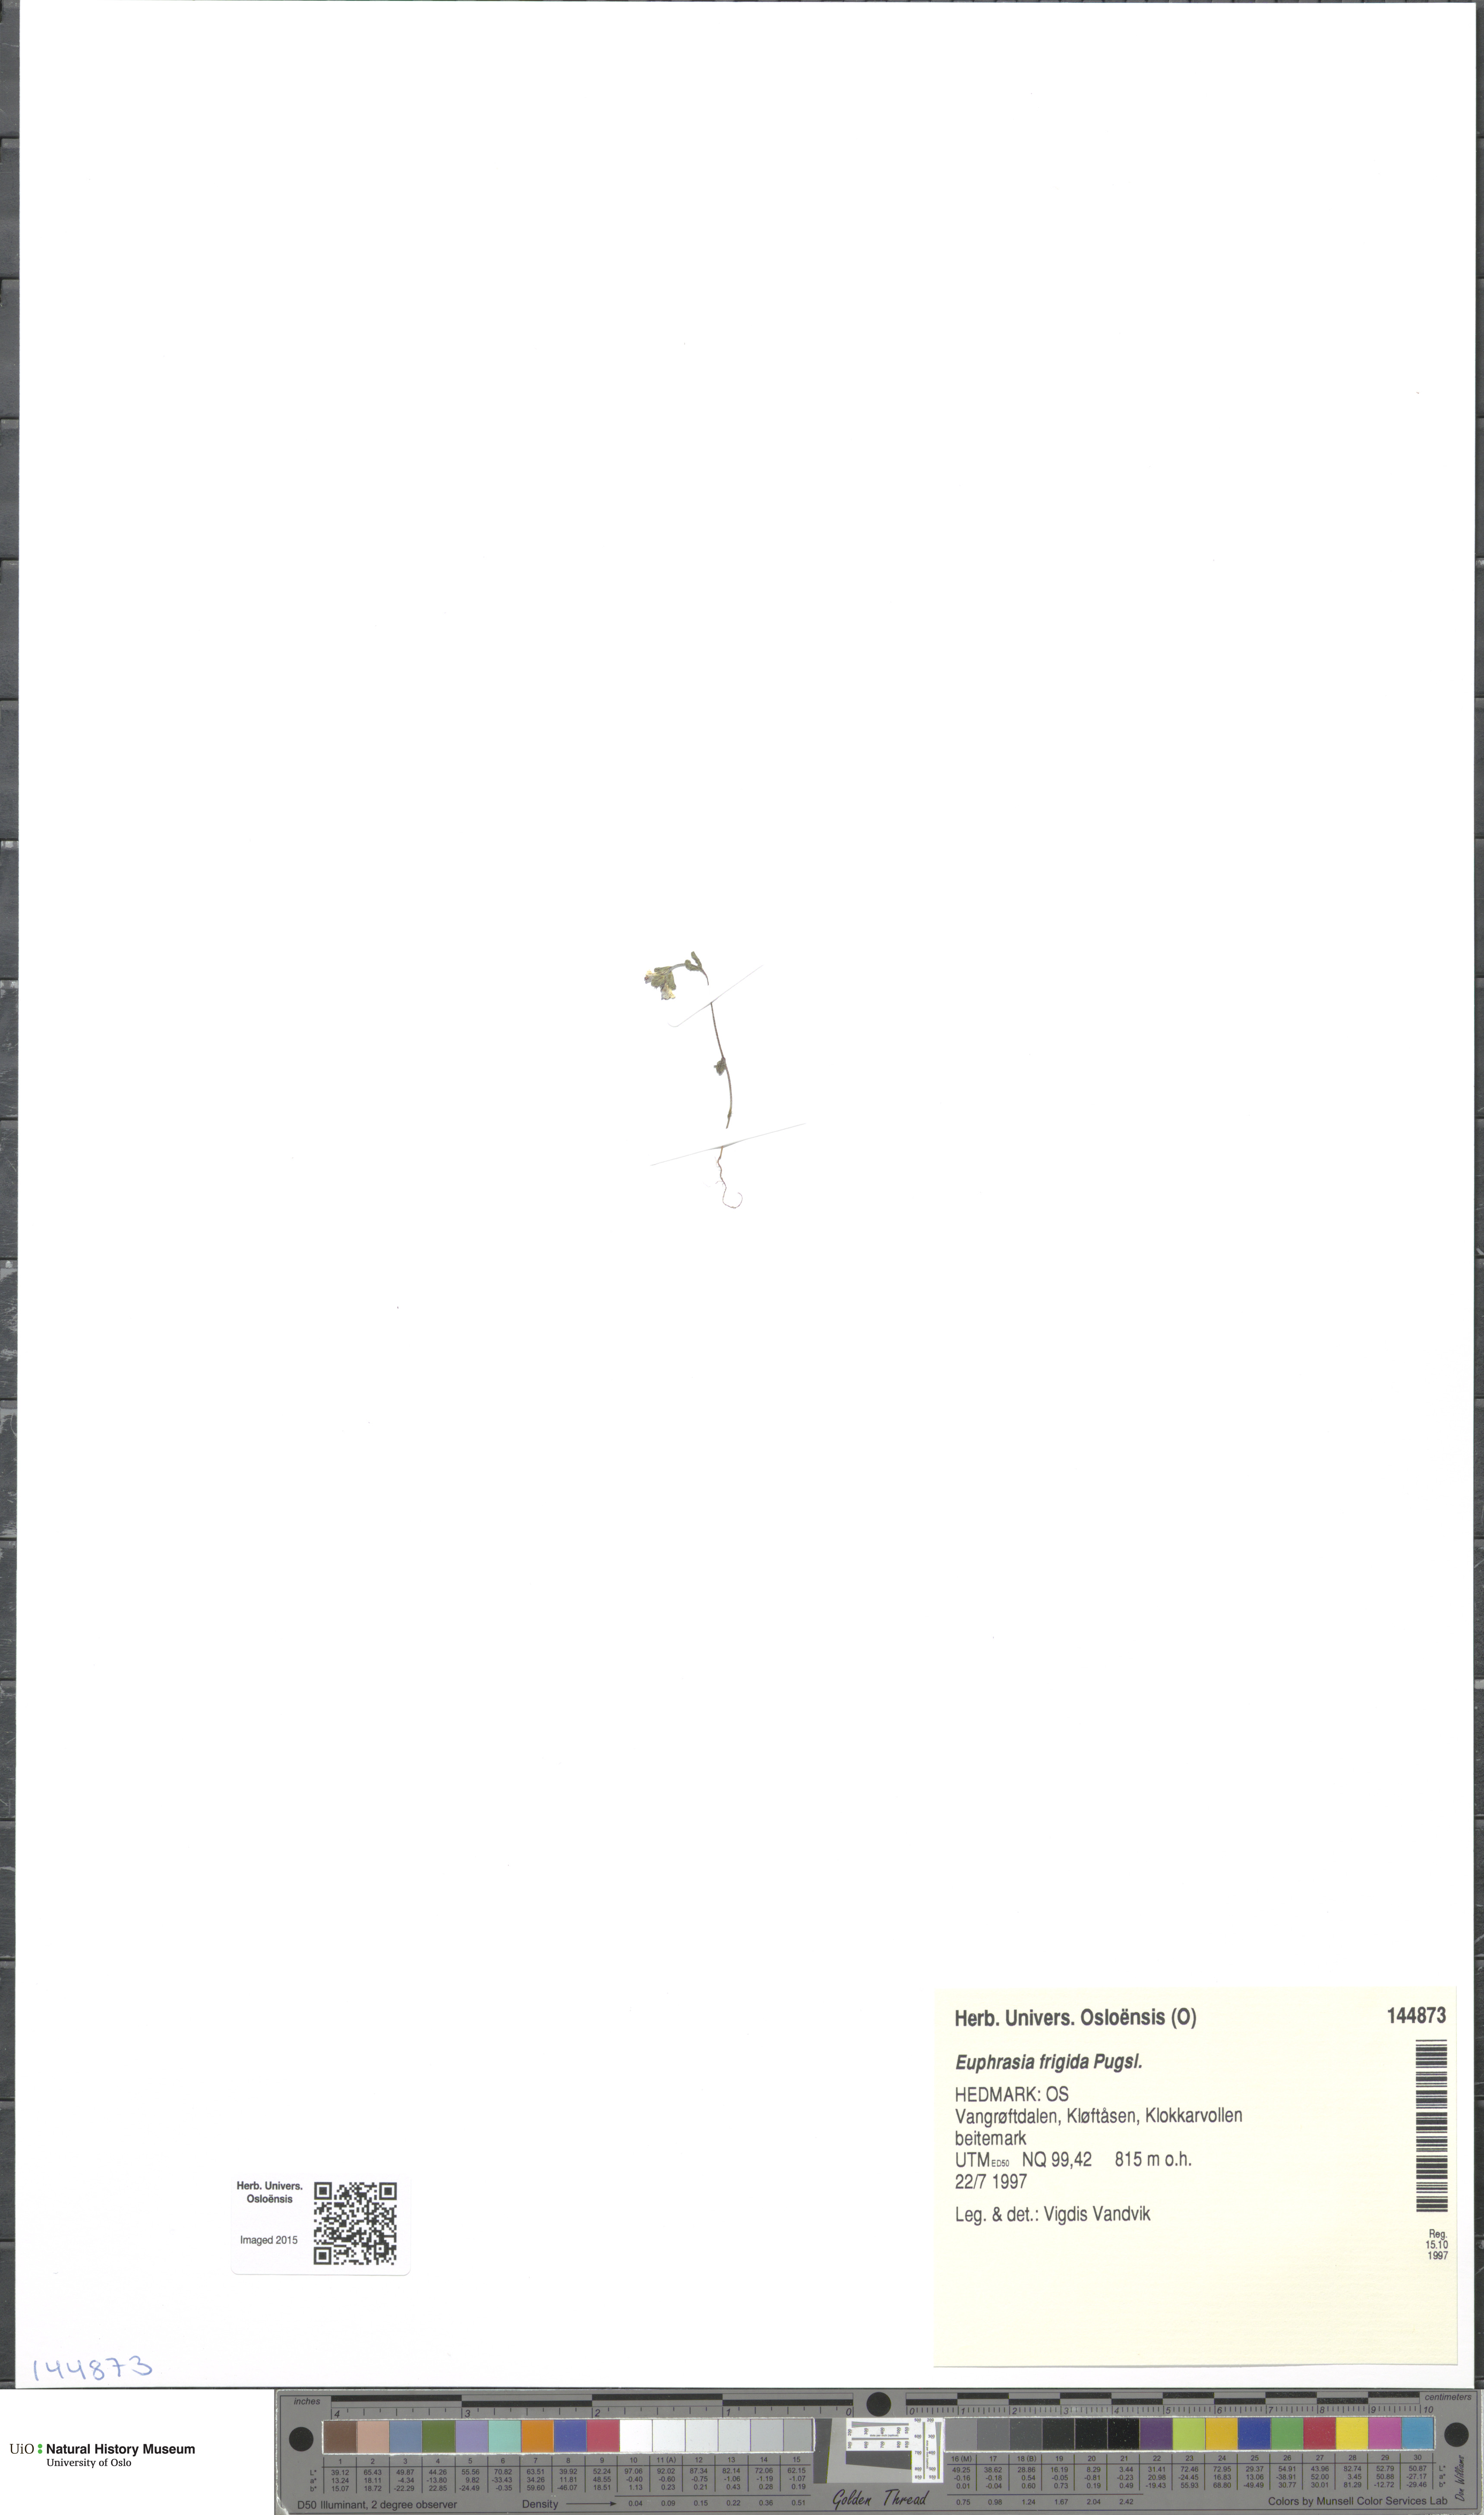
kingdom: Plantae
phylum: Tracheophyta
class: Magnoliopsida
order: Lamiales
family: Orobanchaceae
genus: Euphrasia
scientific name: Euphrasia frigida
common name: An eyebright
